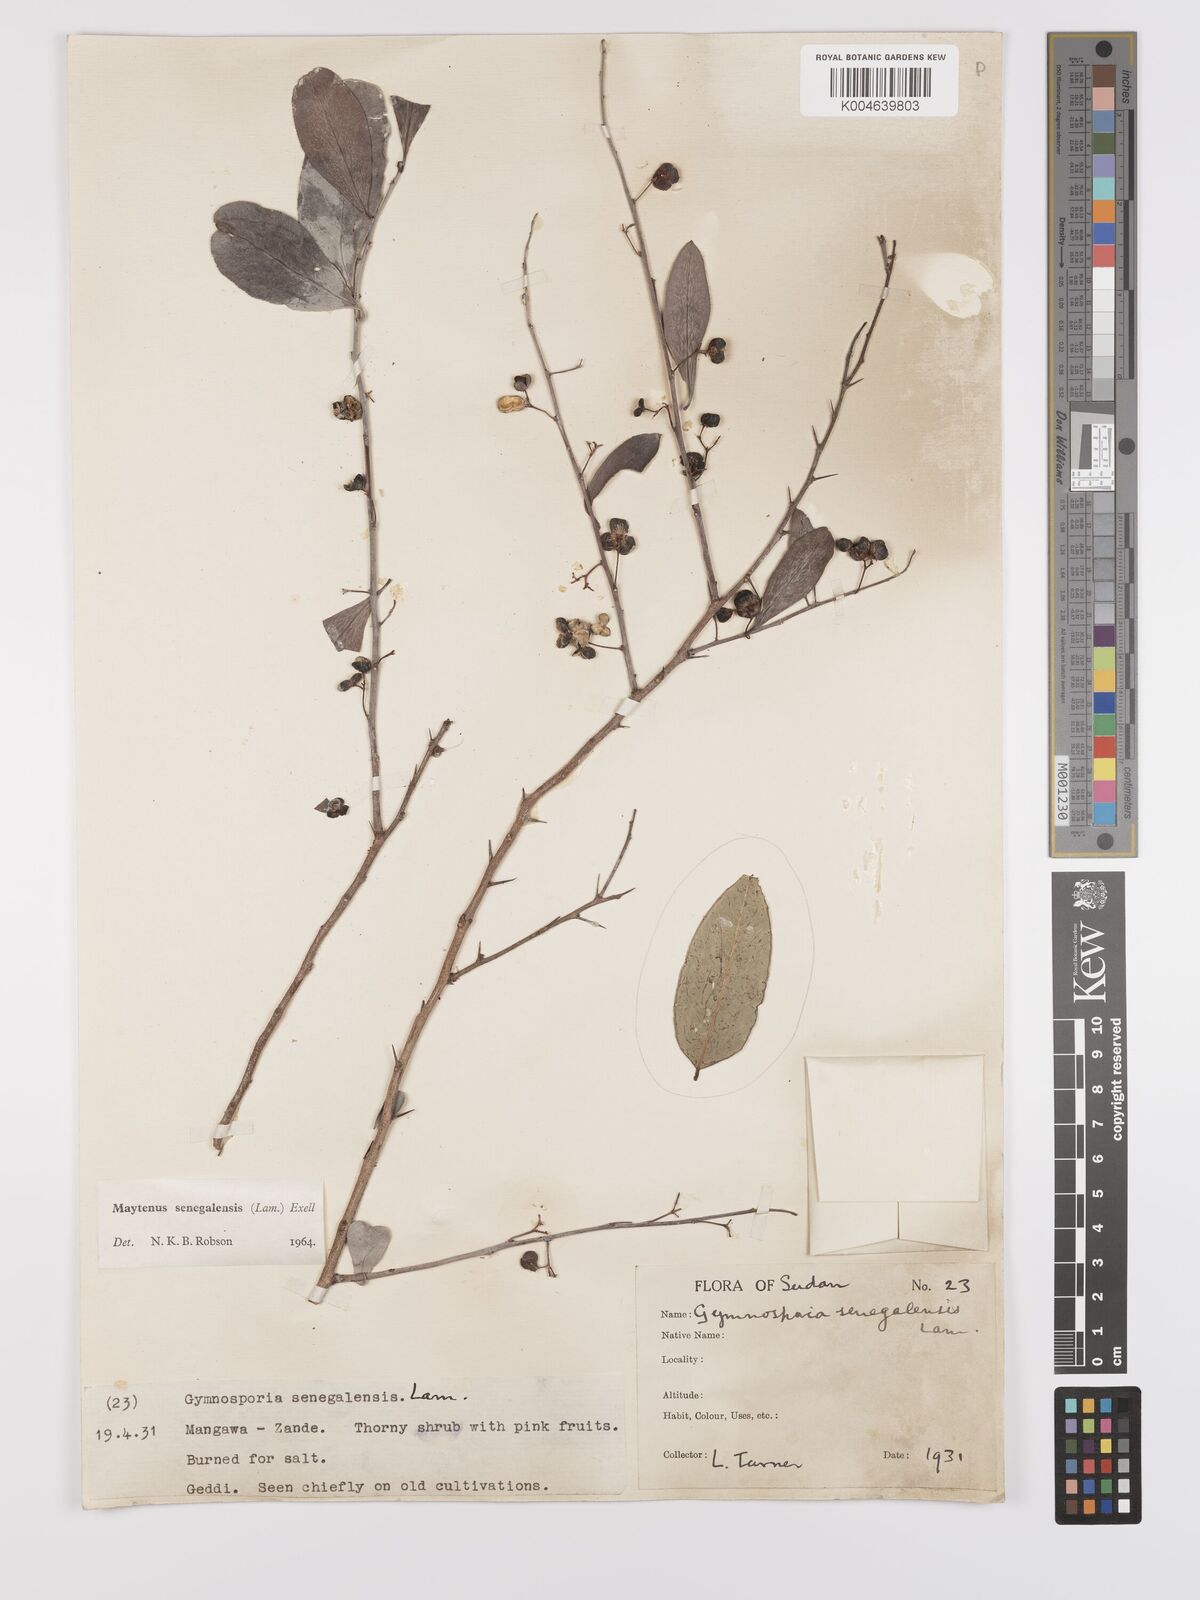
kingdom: Plantae
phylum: Tracheophyta
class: Magnoliopsida
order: Celastrales
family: Celastraceae
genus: Gymnosporia
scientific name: Gymnosporia senegalensis
